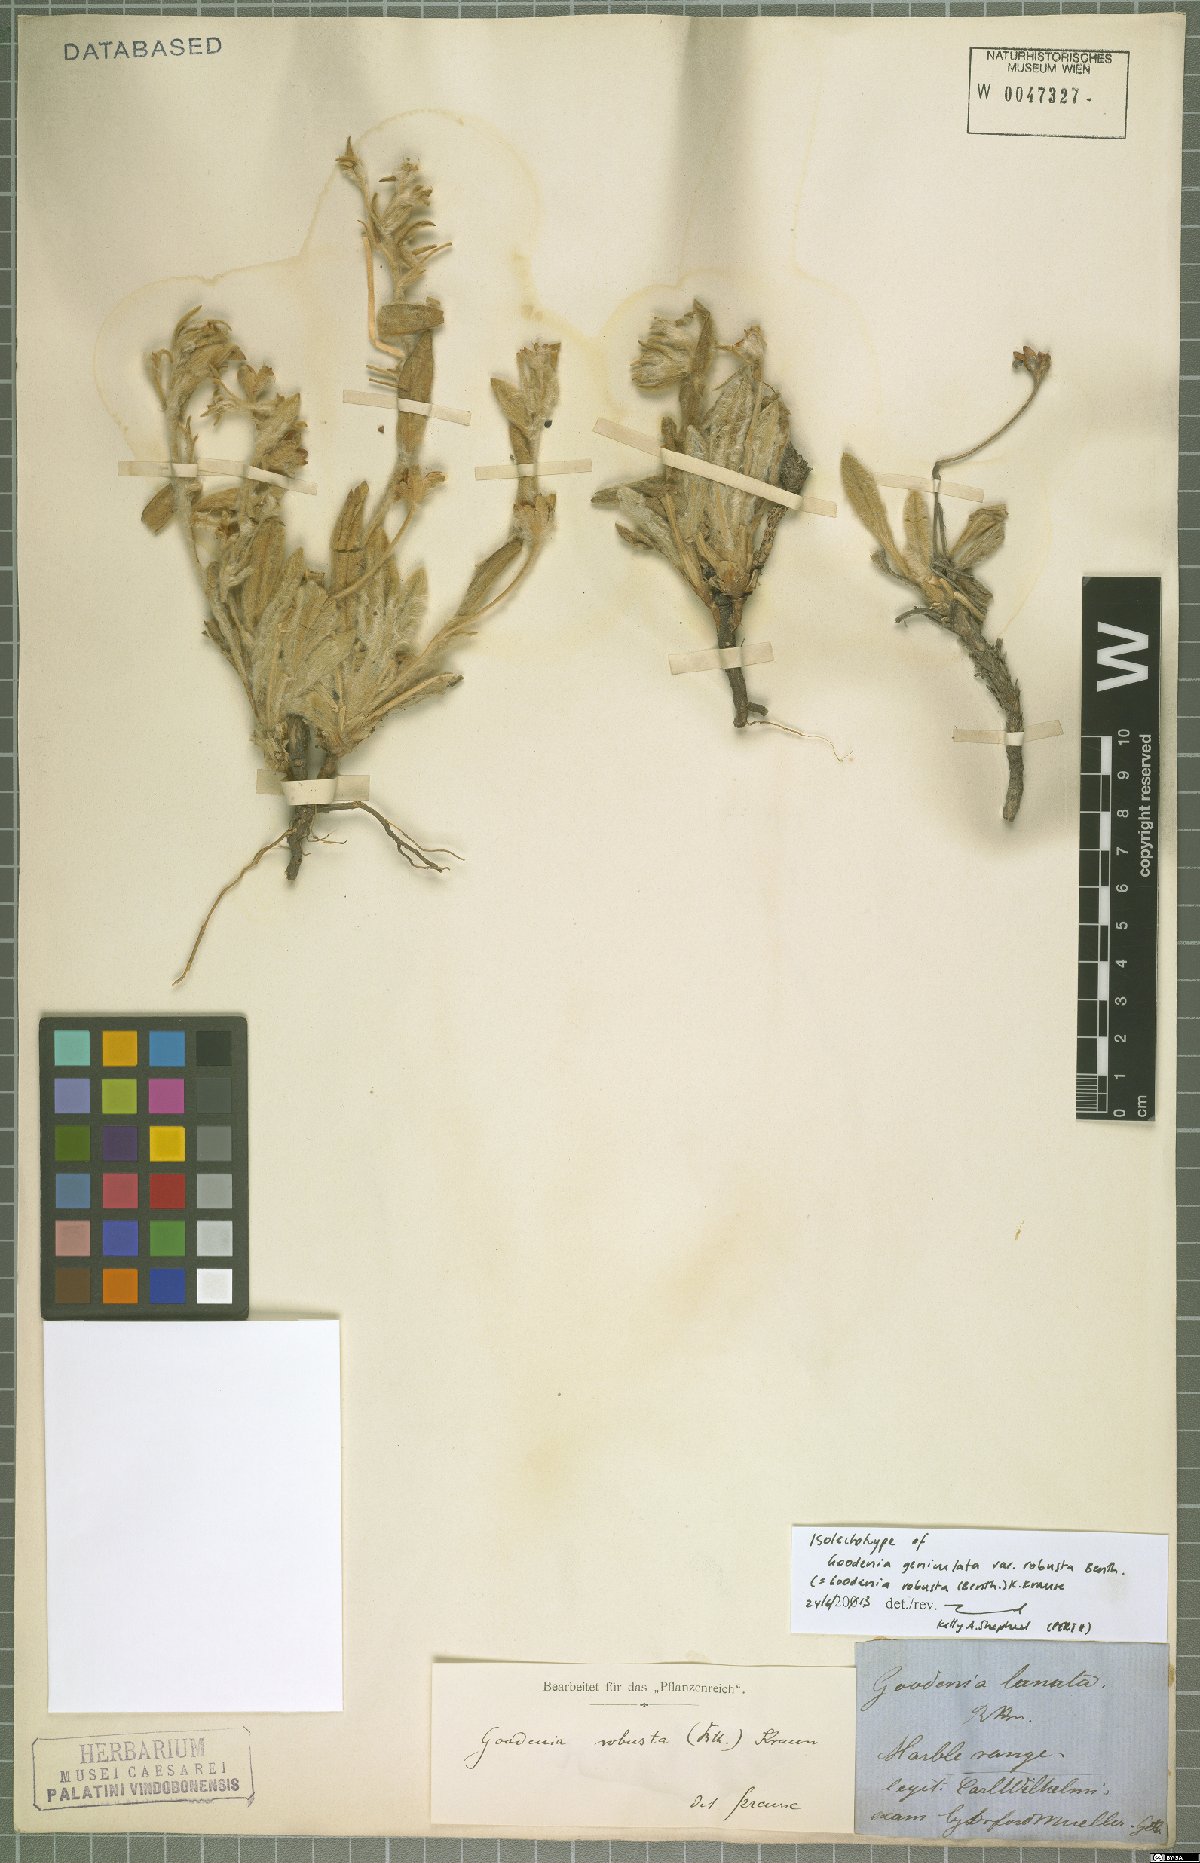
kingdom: Plantae
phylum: Tracheophyta
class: Magnoliopsida
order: Asterales
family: Goodeniaceae
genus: Goodenia
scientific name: Goodenia robusta
